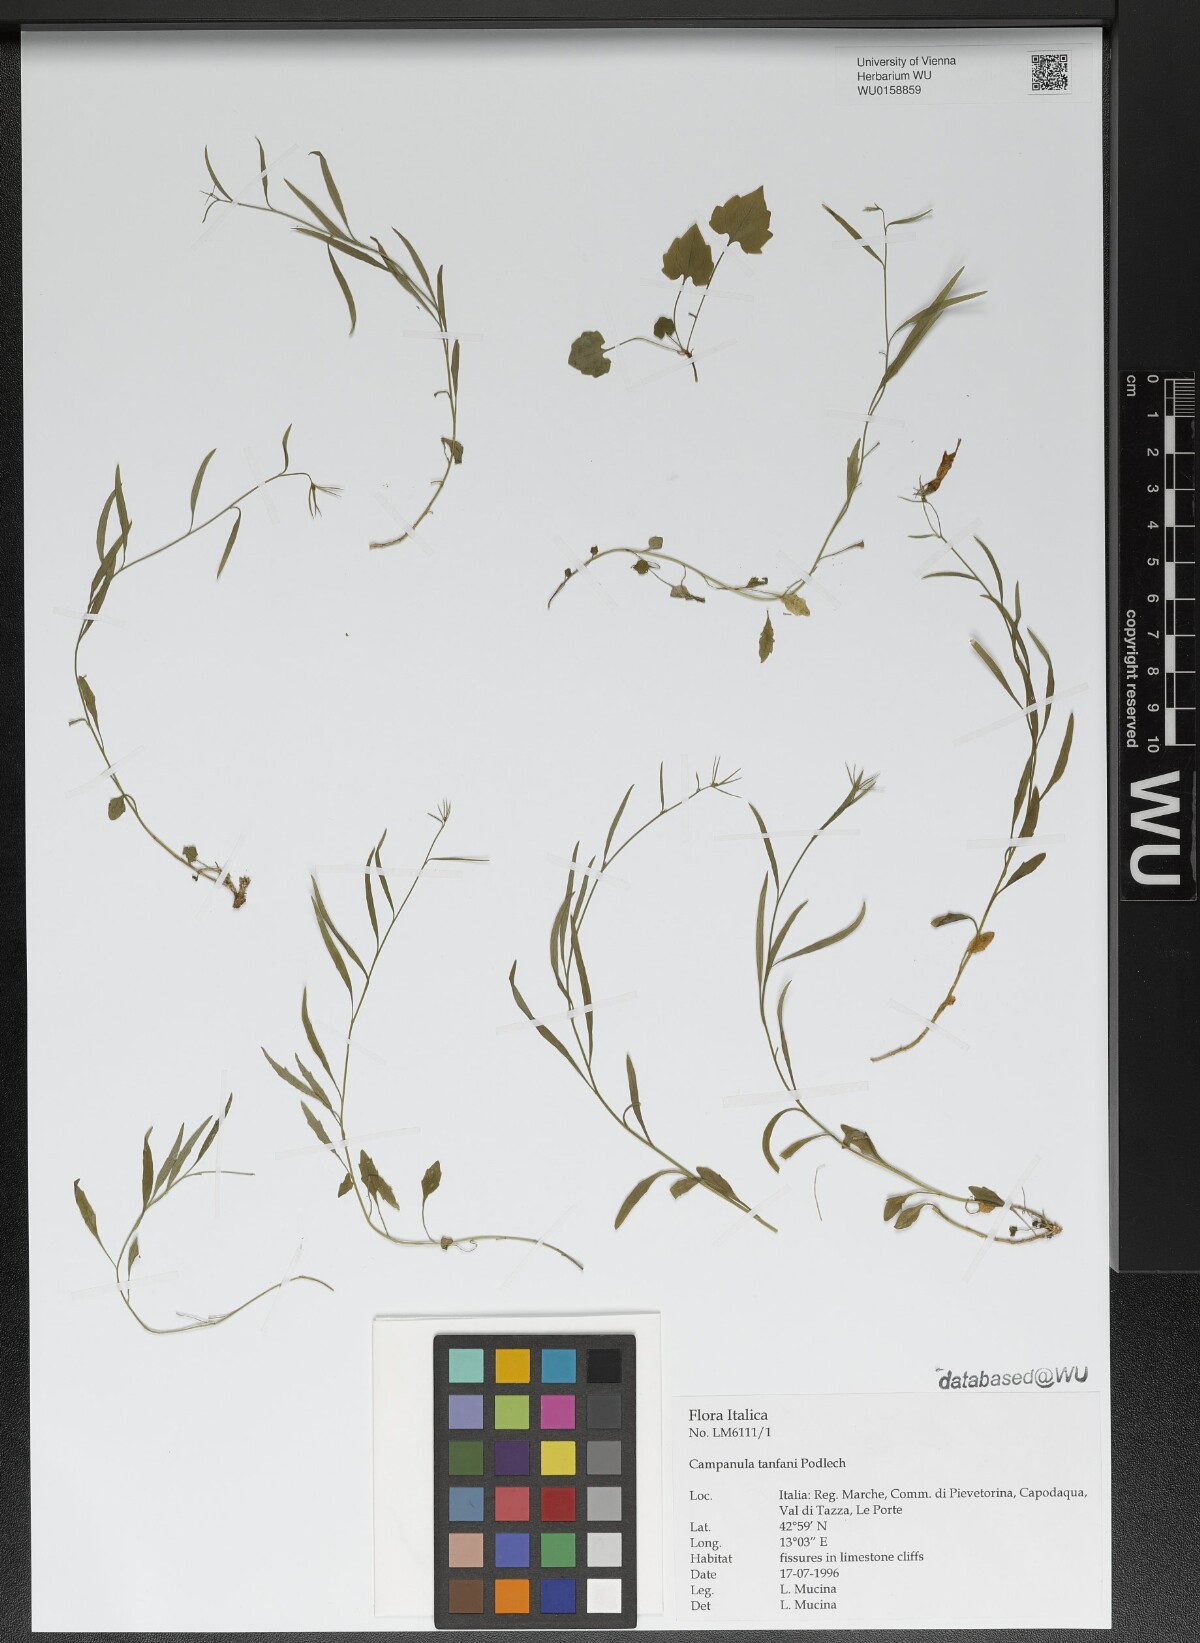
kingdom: Plantae
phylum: Tracheophyta
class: Magnoliopsida
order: Asterales
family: Campanulaceae
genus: Campanula
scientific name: Campanula tanfanii
